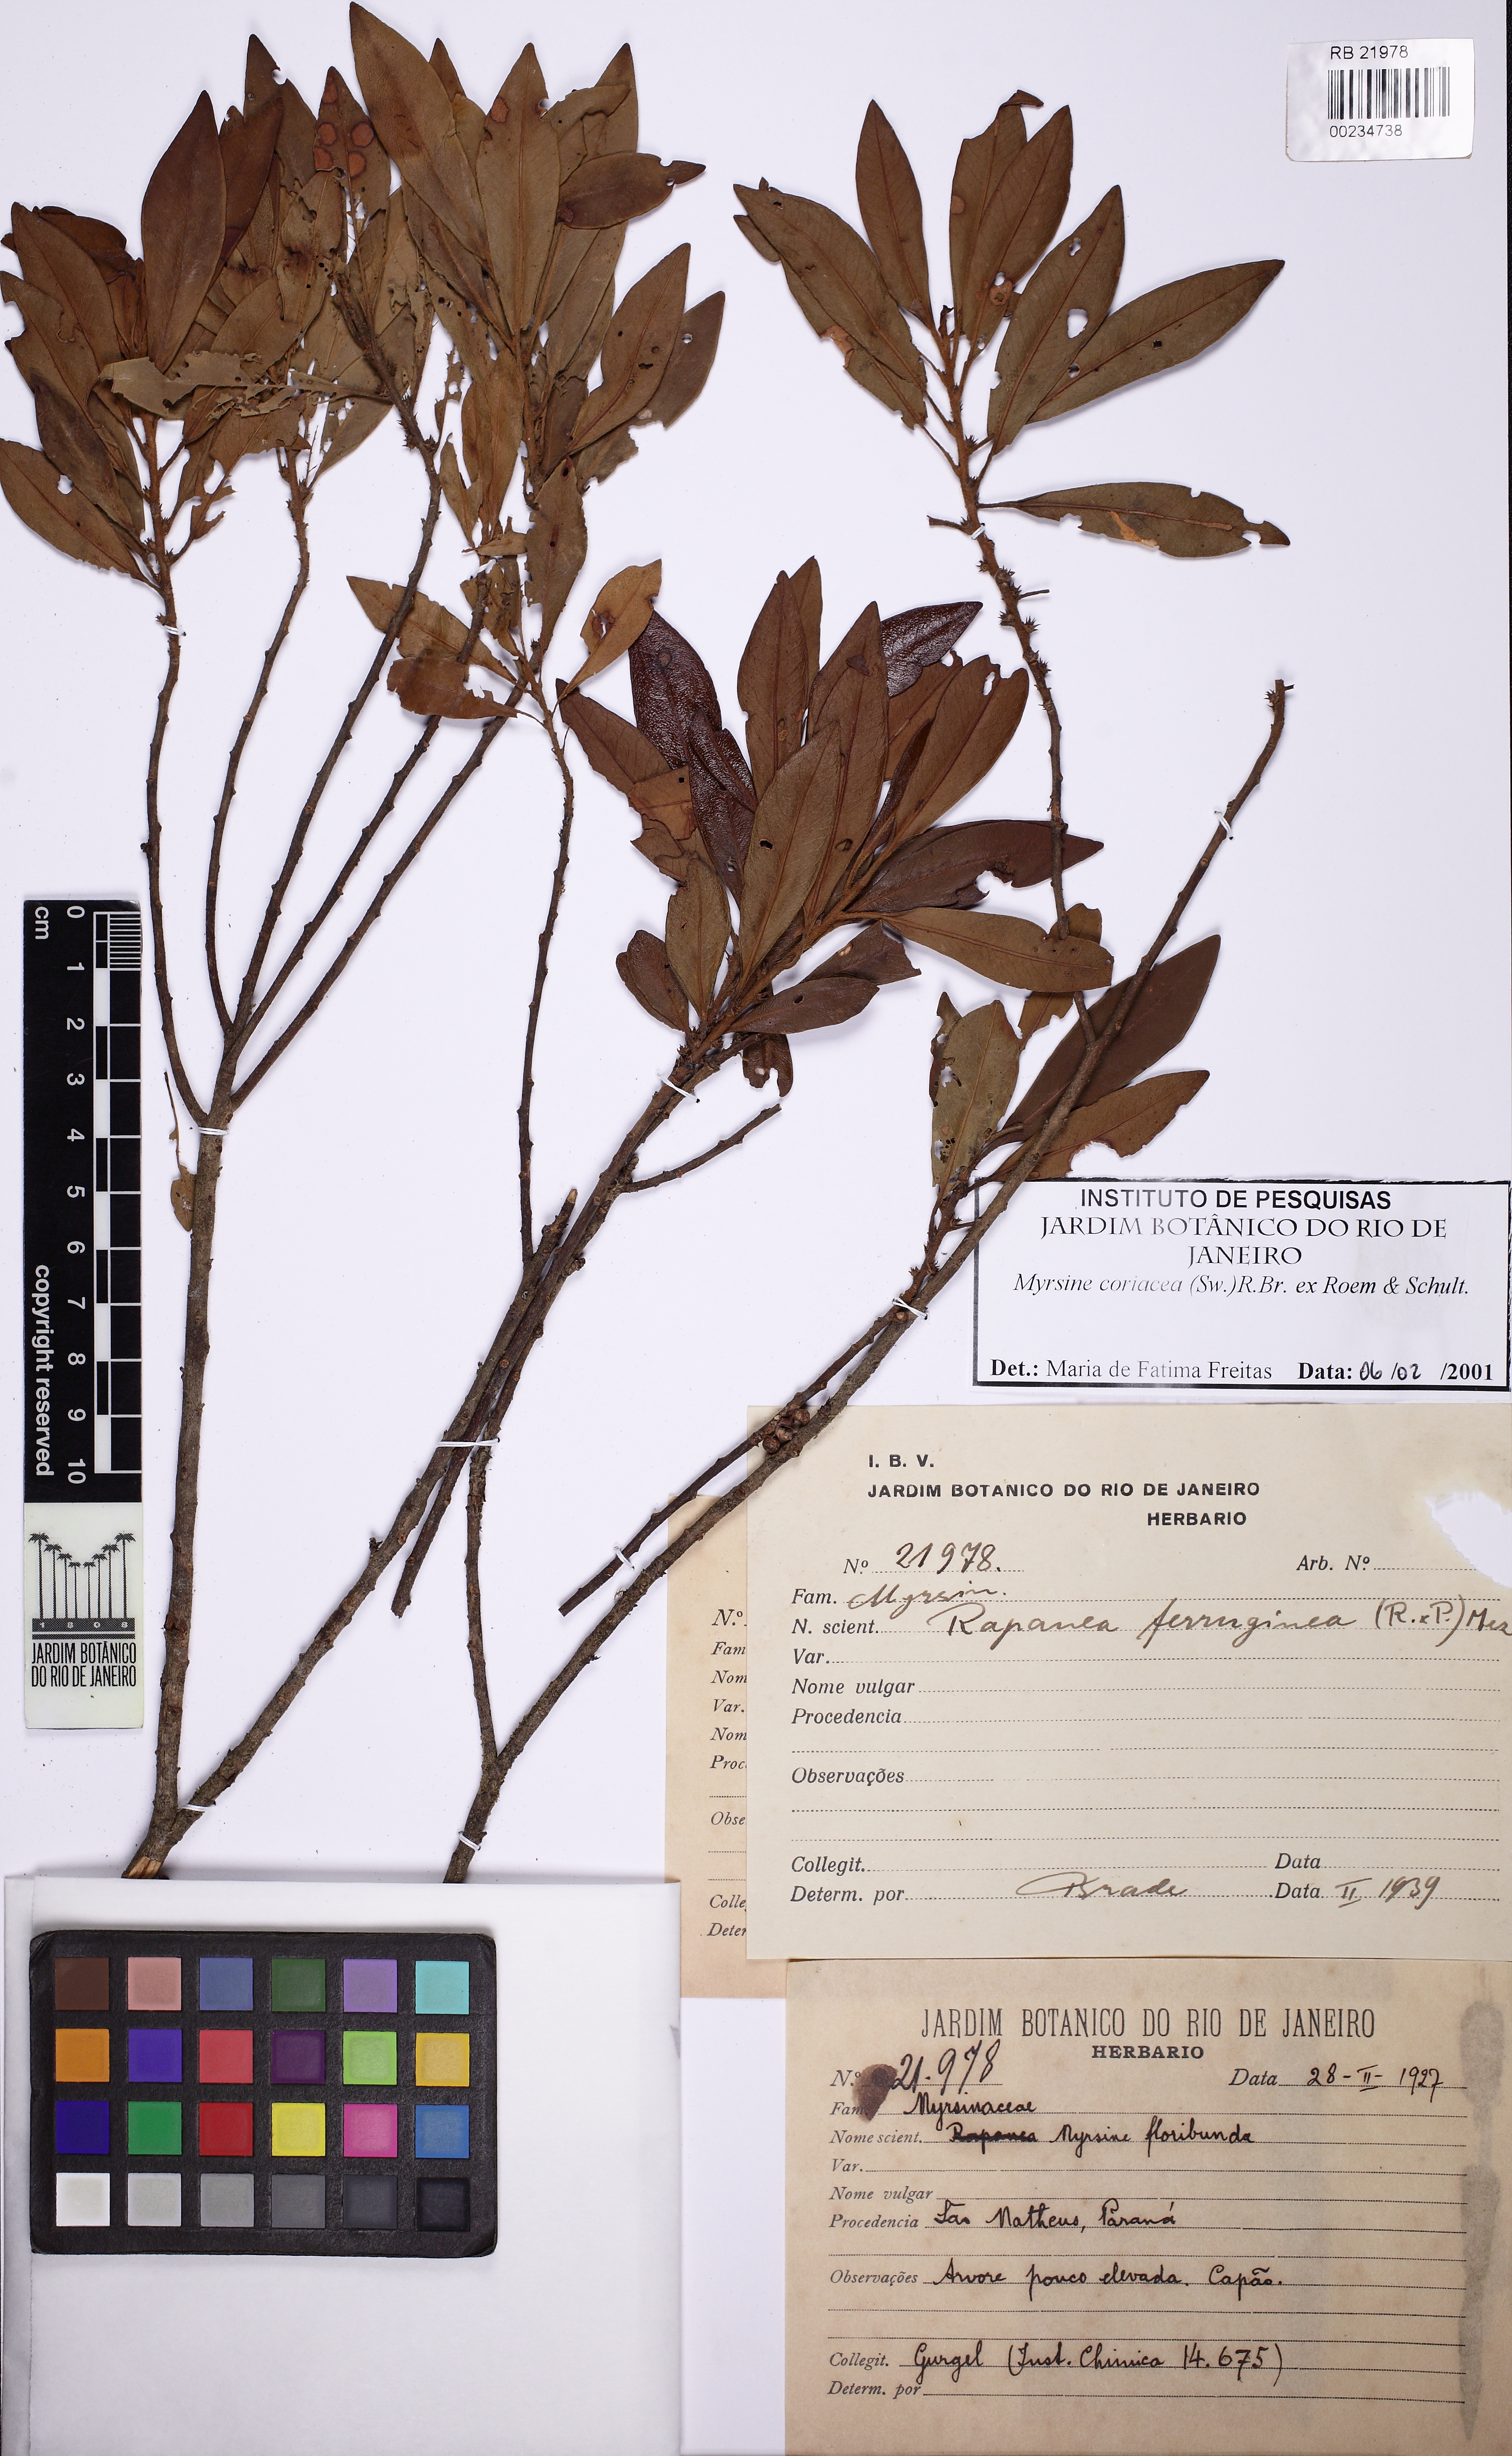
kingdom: Plantae
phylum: Tracheophyta
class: Magnoliopsida
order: Ericales
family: Primulaceae
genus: Myrsine
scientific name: Myrsine coriacea
